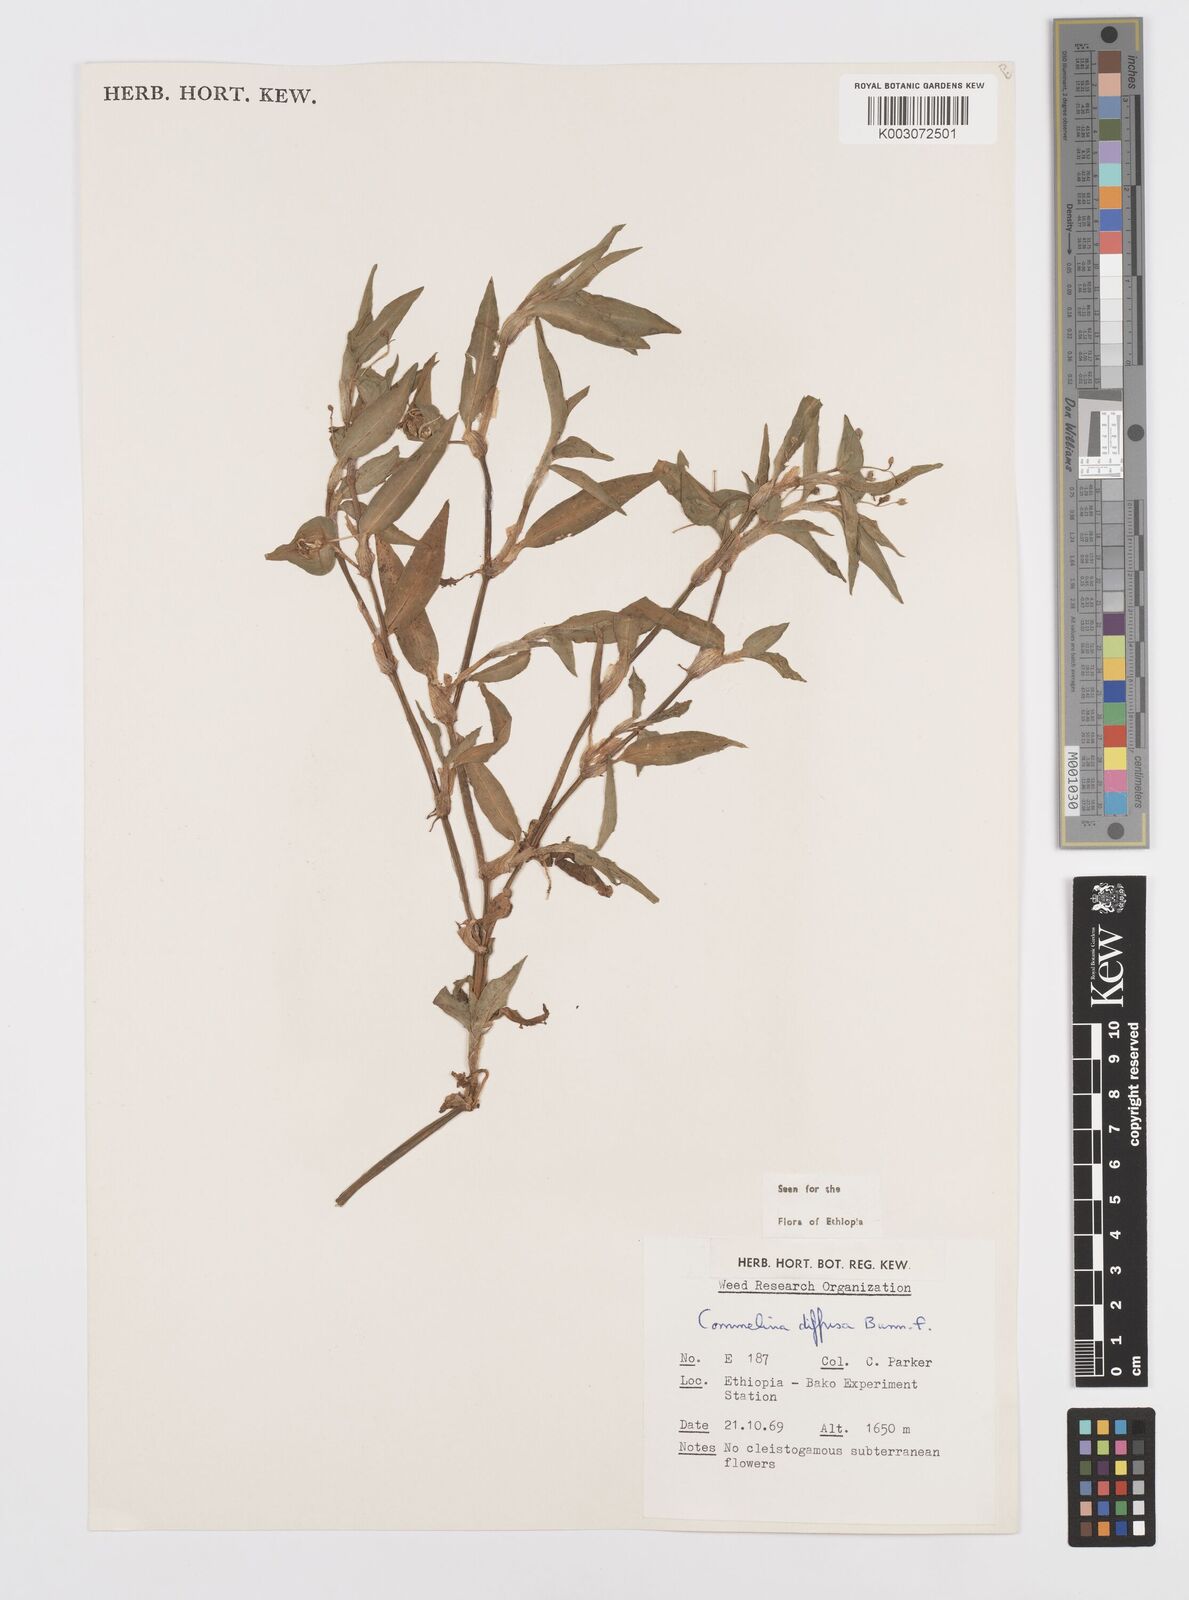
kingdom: Plantae
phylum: Tracheophyta
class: Liliopsida
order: Commelinales
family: Commelinaceae
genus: Commelina
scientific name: Commelina diffusa
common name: Climbing dayflower
